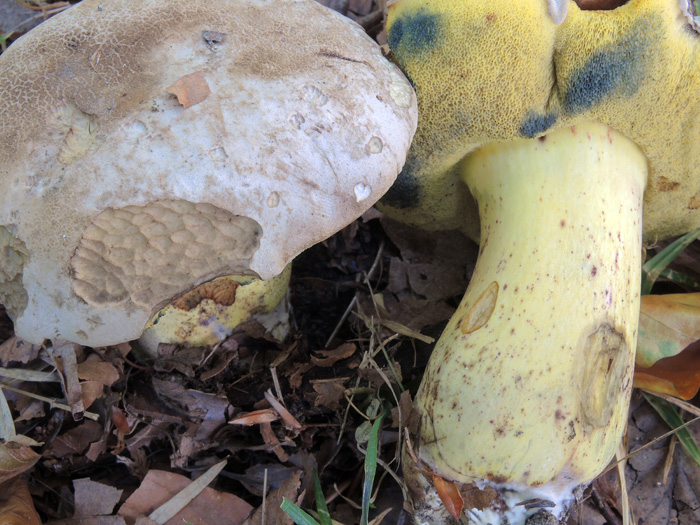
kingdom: Fungi
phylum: Basidiomycota
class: Agaricomycetes
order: Boletales
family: Boletaceae
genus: Caloboletus
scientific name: Caloboletus radicans
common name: rod-rørhat
